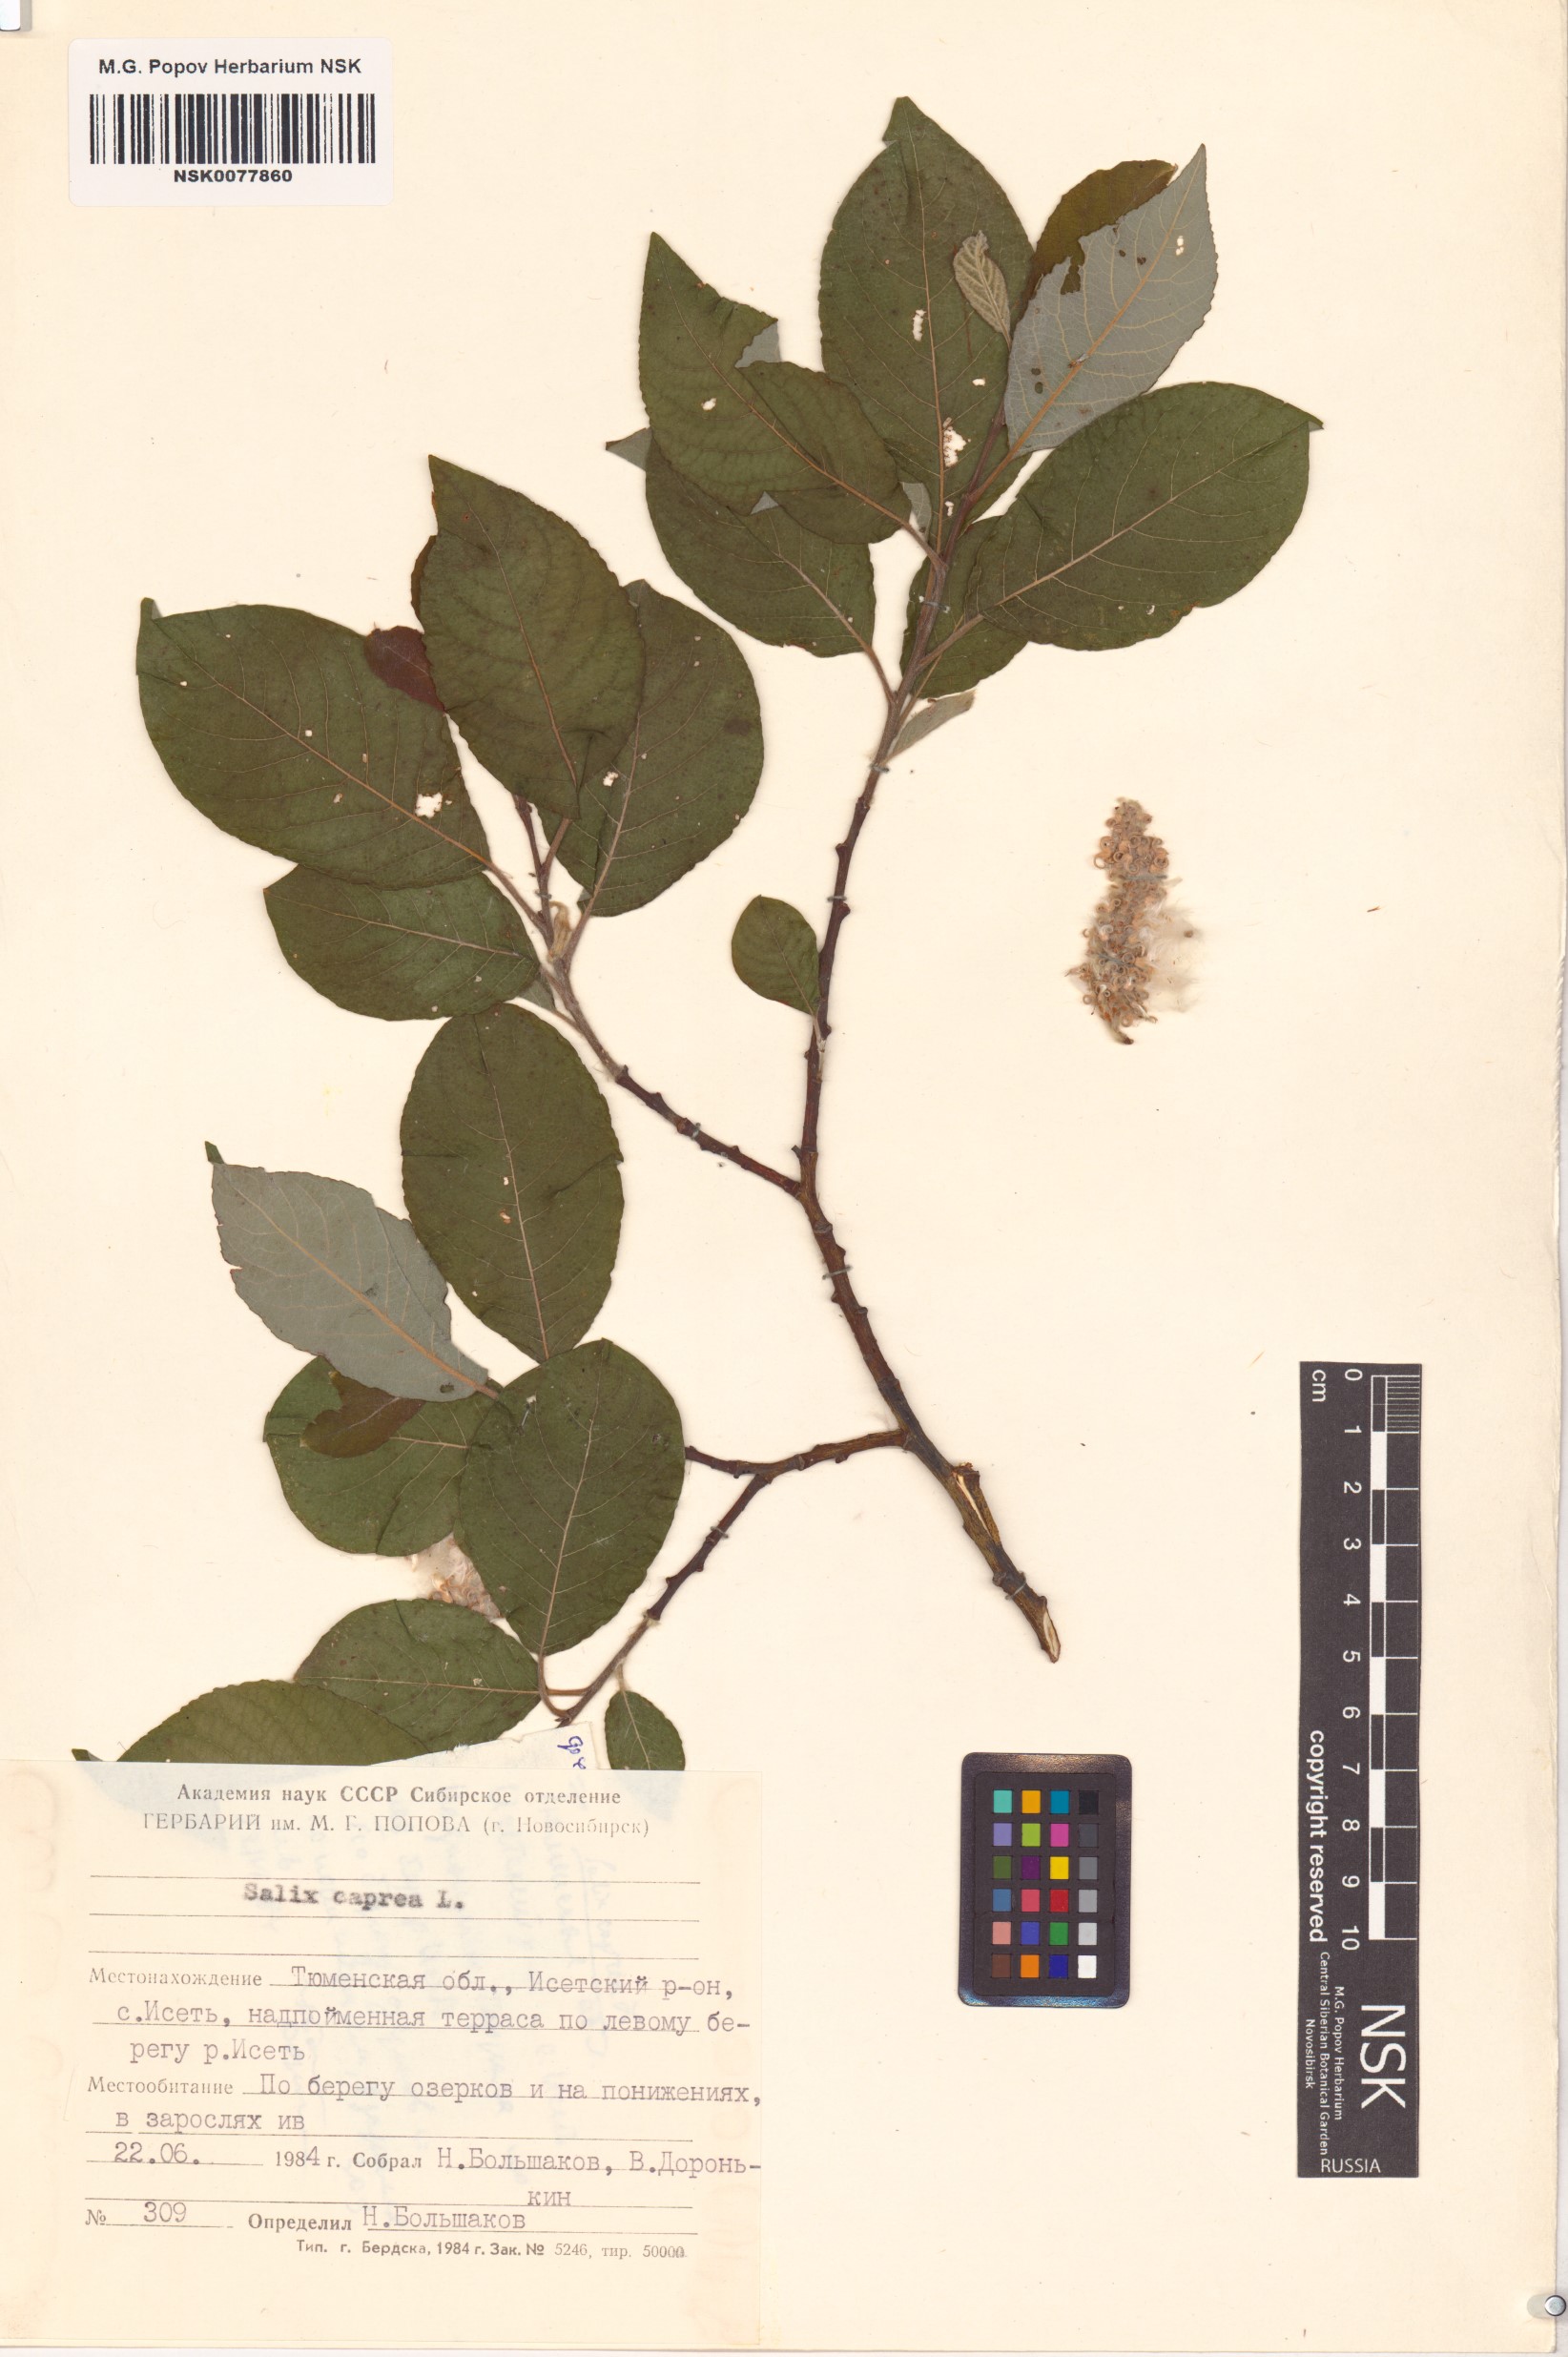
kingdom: Plantae
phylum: Tracheophyta
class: Magnoliopsida
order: Malpighiales
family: Salicaceae
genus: Salix
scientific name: Salix caprea
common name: Goat willow
